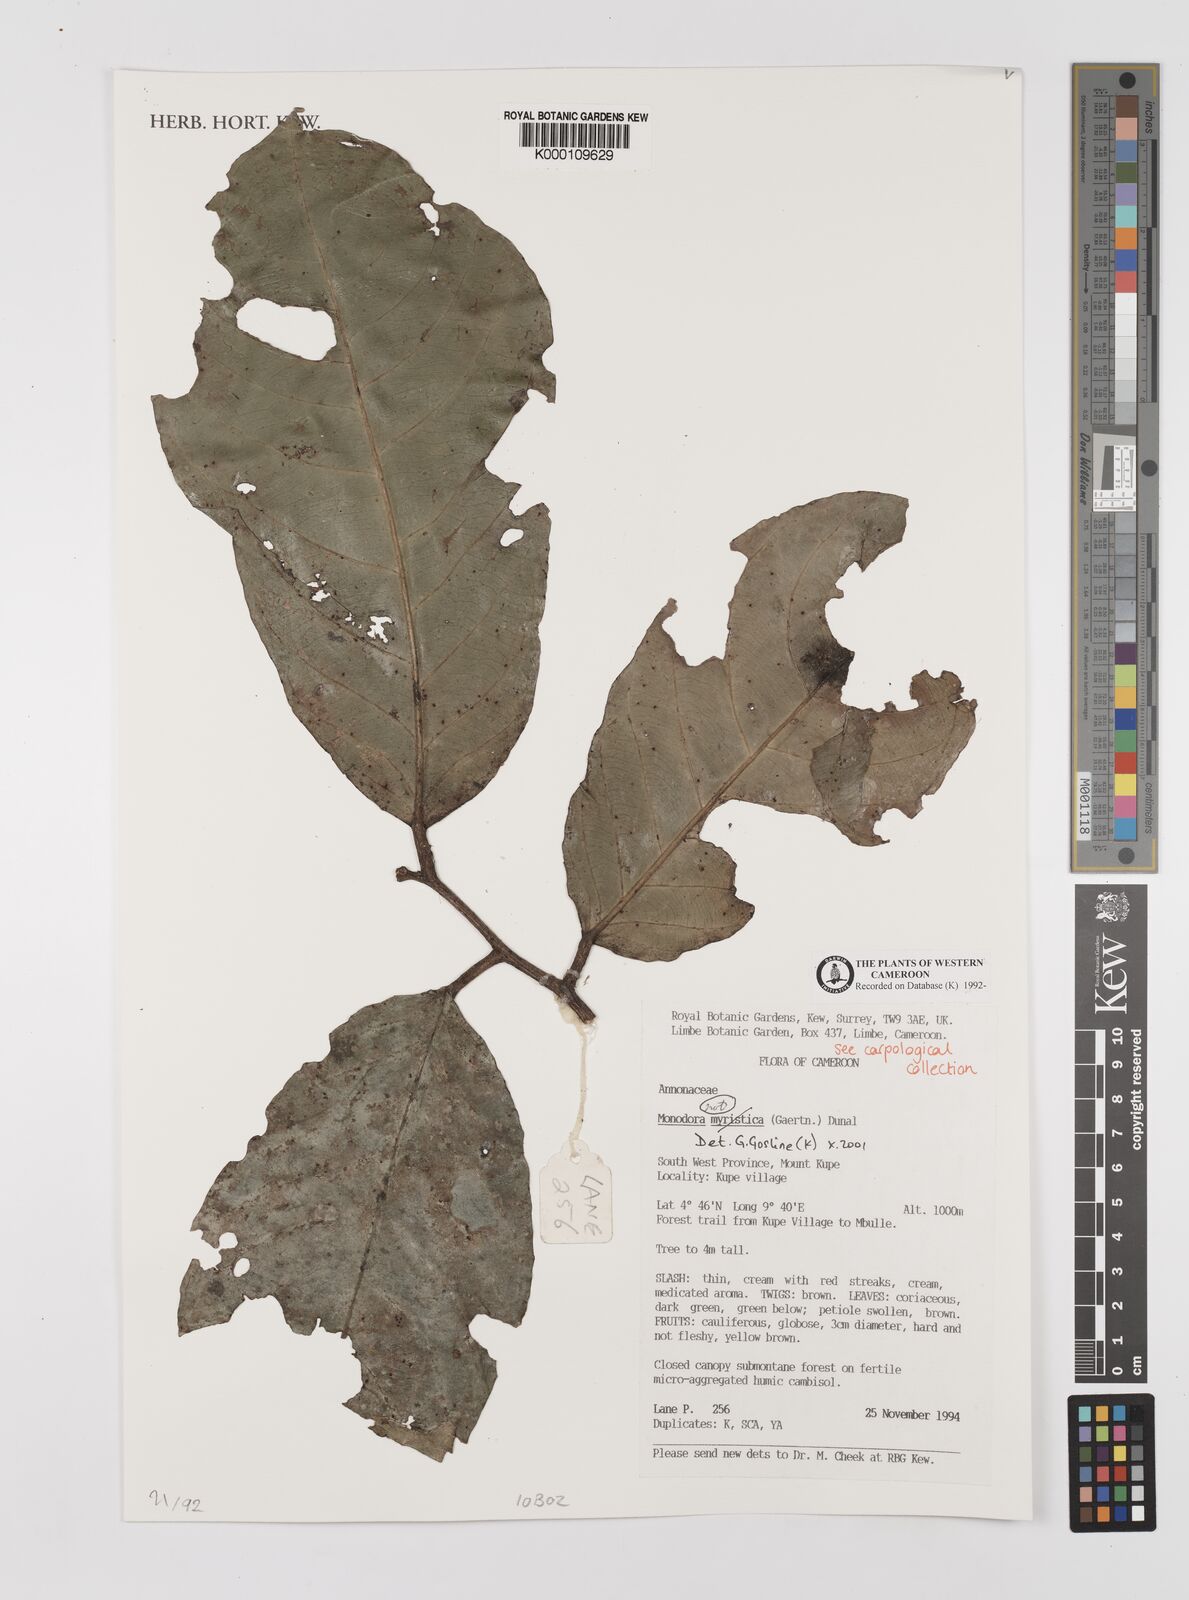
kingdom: Plantae
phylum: Tracheophyta
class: Magnoliopsida
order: Magnoliales
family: Annonaceae
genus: Monodora
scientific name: Monodora
